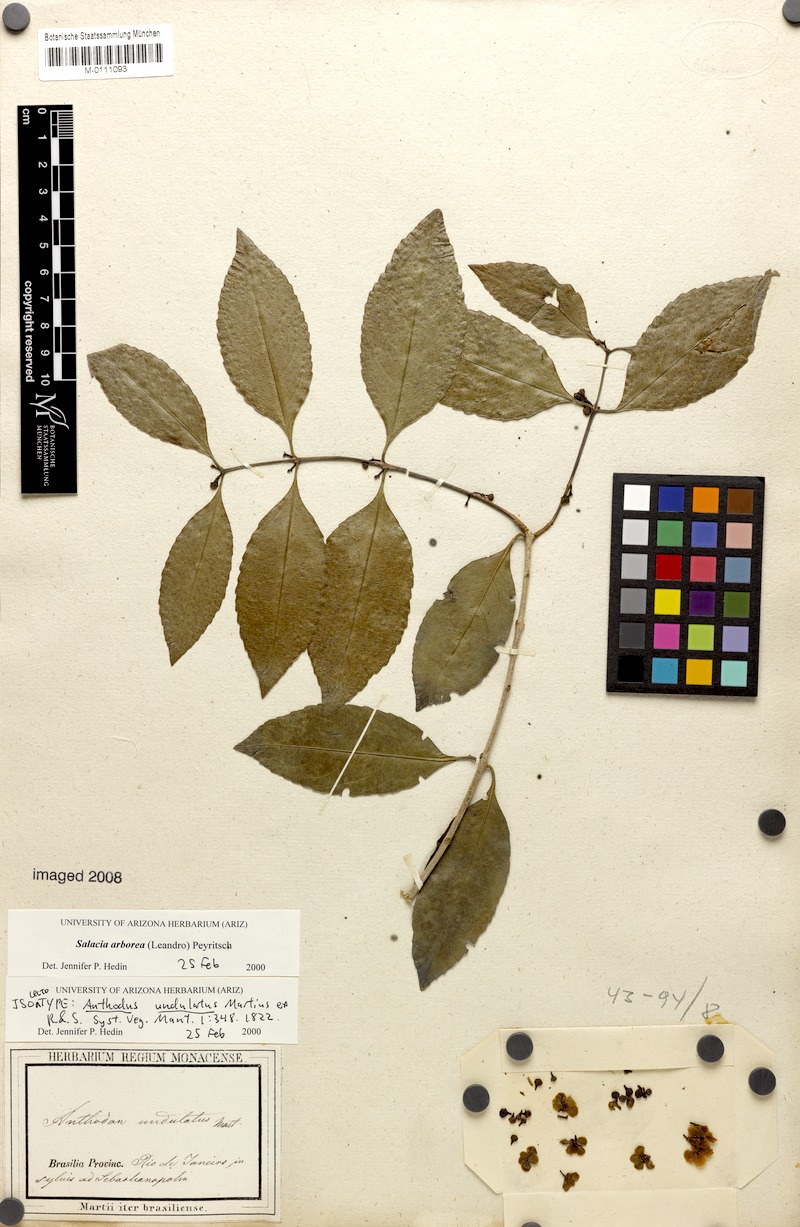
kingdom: Plantae
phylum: Tracheophyta
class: Magnoliopsida
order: Celastrales
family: Celastraceae
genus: Salacia
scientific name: Salacia arborea
